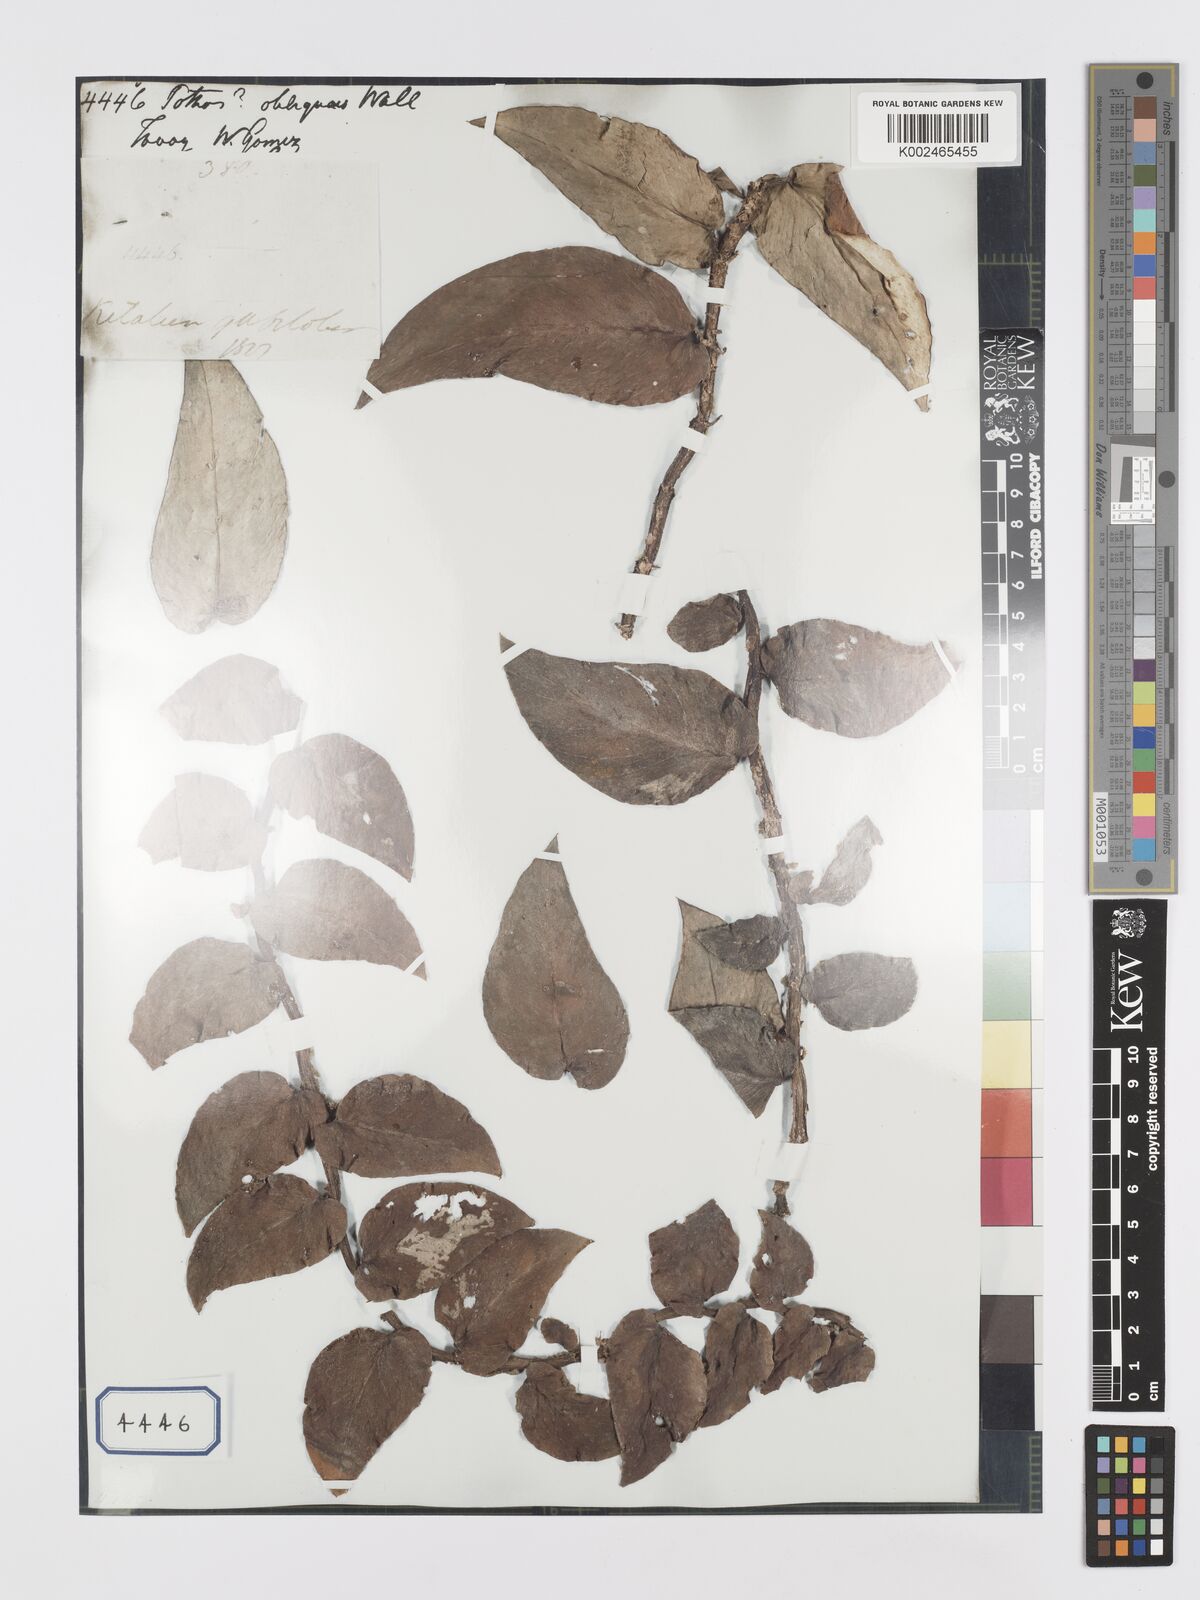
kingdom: Plantae
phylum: Tracheophyta
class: Liliopsida
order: Alismatales
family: Araceae
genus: Rhaphidophora
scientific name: Rhaphidophora
